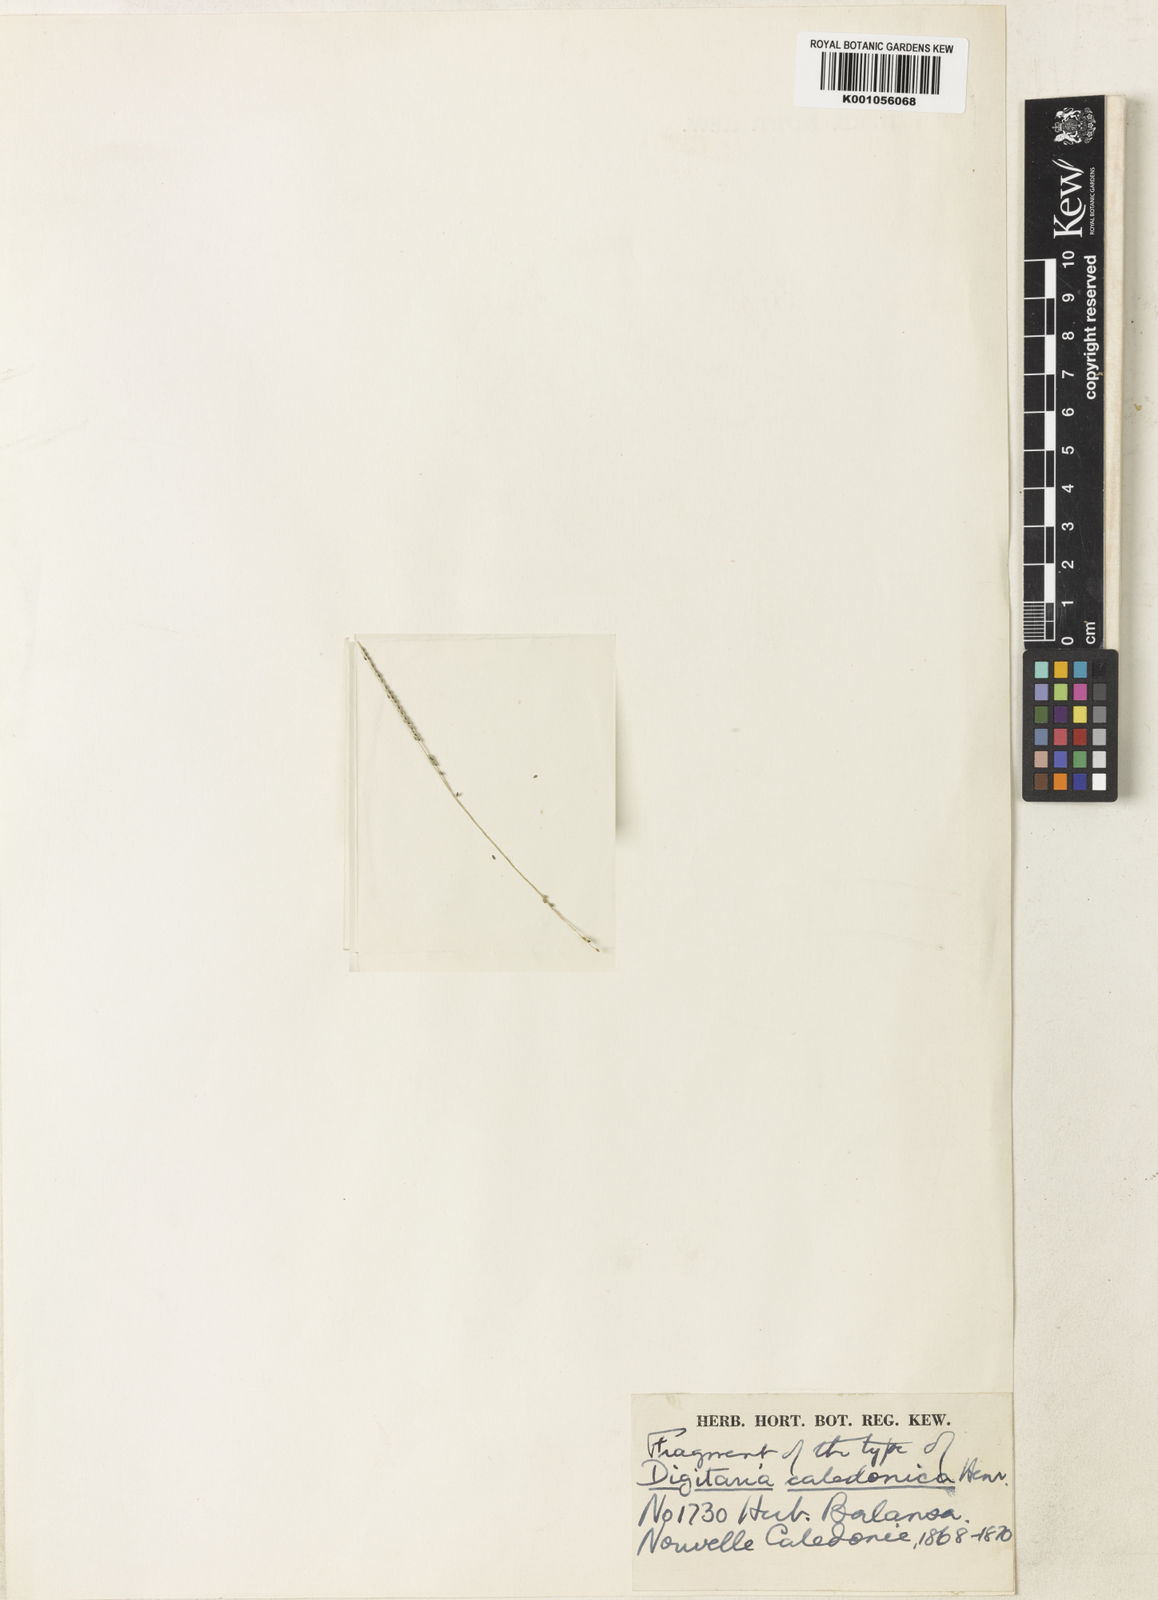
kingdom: Plantae
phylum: Tracheophyta
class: Liliopsida
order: Poales
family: Poaceae
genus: Digitaria
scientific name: Digitaria caledonica
